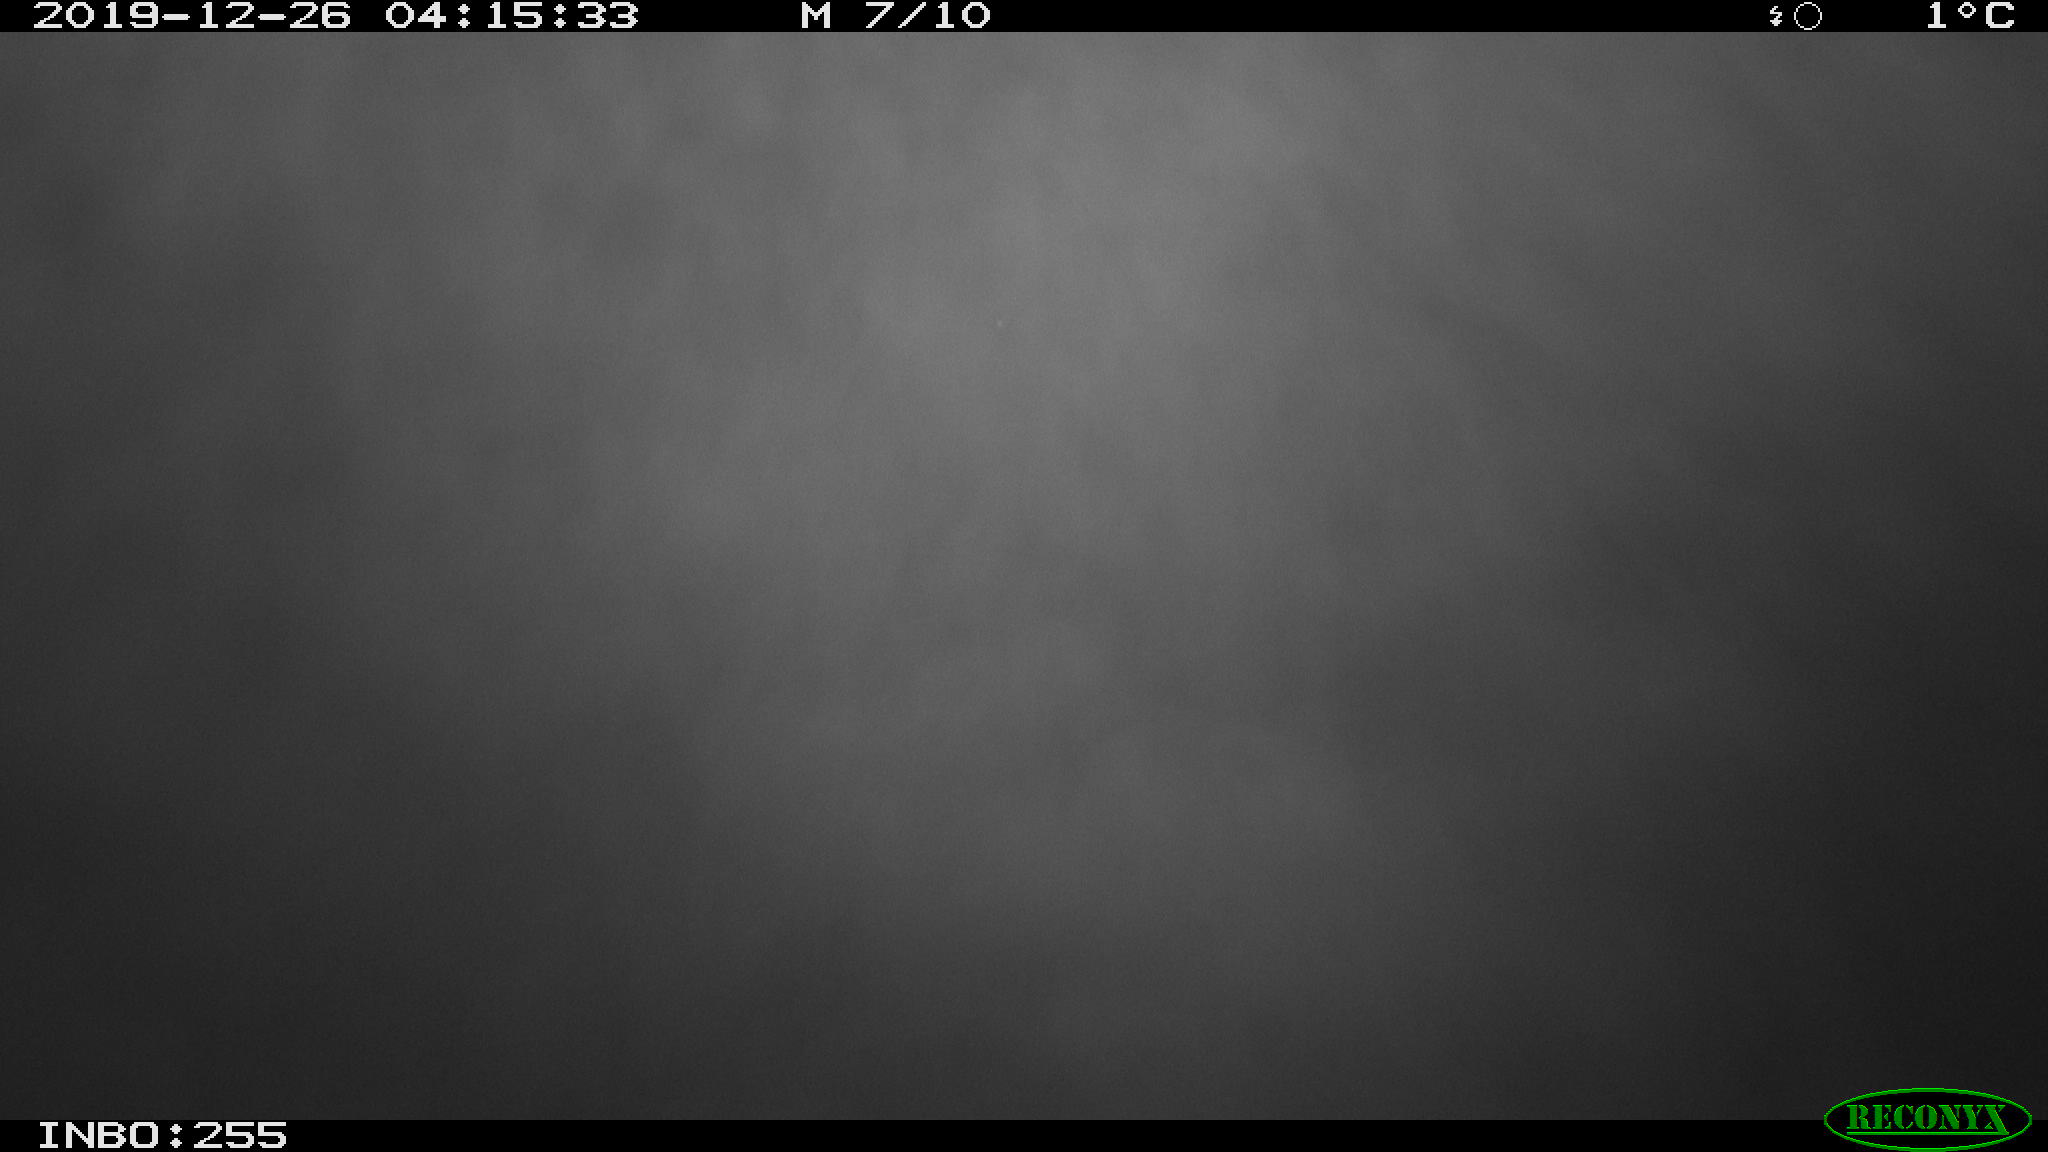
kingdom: Animalia
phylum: Chordata
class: Aves
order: Anseriformes
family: Anatidae
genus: Anas
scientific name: Anas platyrhynchos
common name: Mallard
